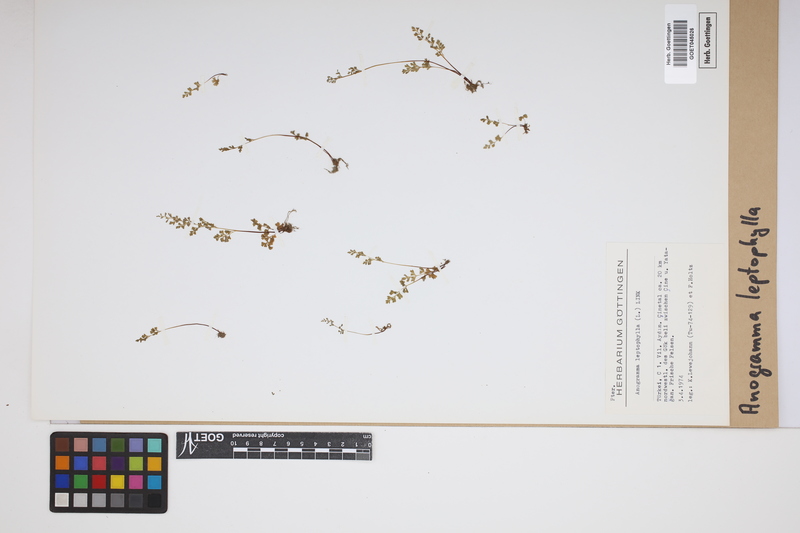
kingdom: Plantae
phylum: Tracheophyta
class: Polypodiopsida
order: Polypodiales
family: Pteridaceae
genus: Anogramma
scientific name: Anogramma leptophylla
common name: Jersey fern
